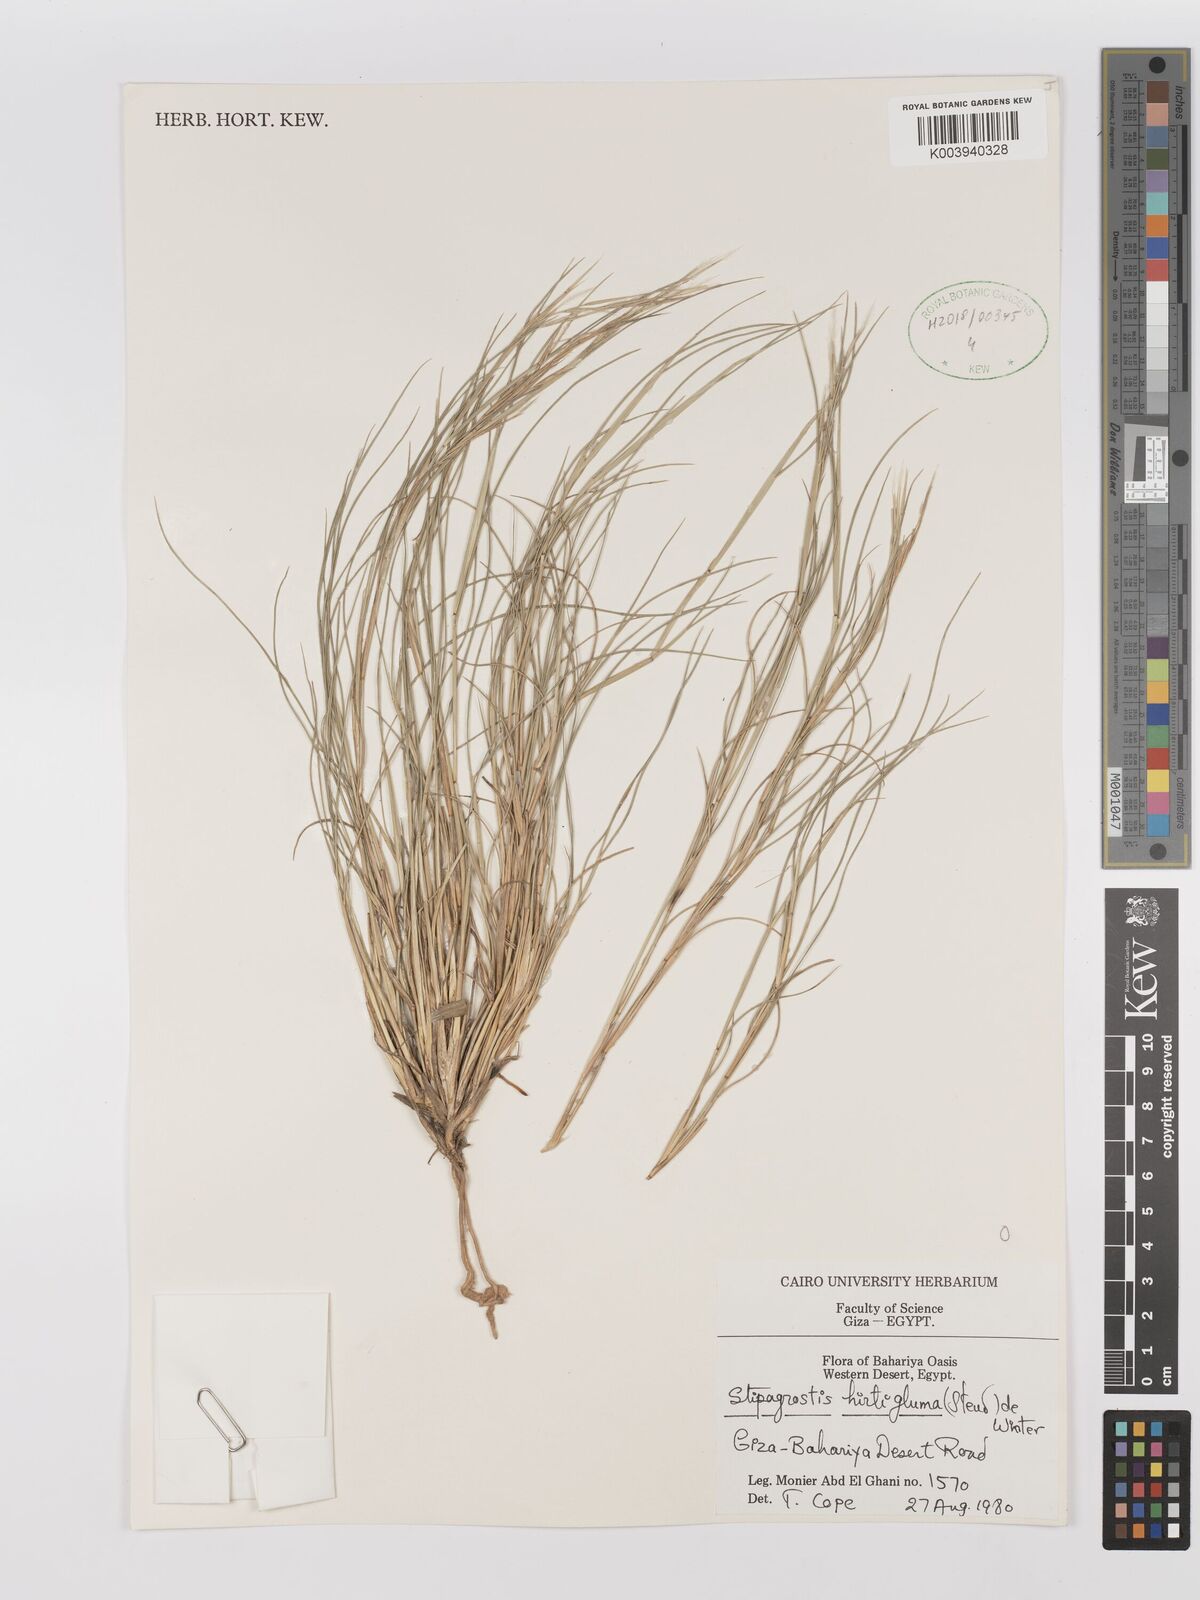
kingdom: Plantae
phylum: Tracheophyta
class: Liliopsida
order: Poales
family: Poaceae
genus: Stipagrostis
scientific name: Stipagrostis hirtigluma
